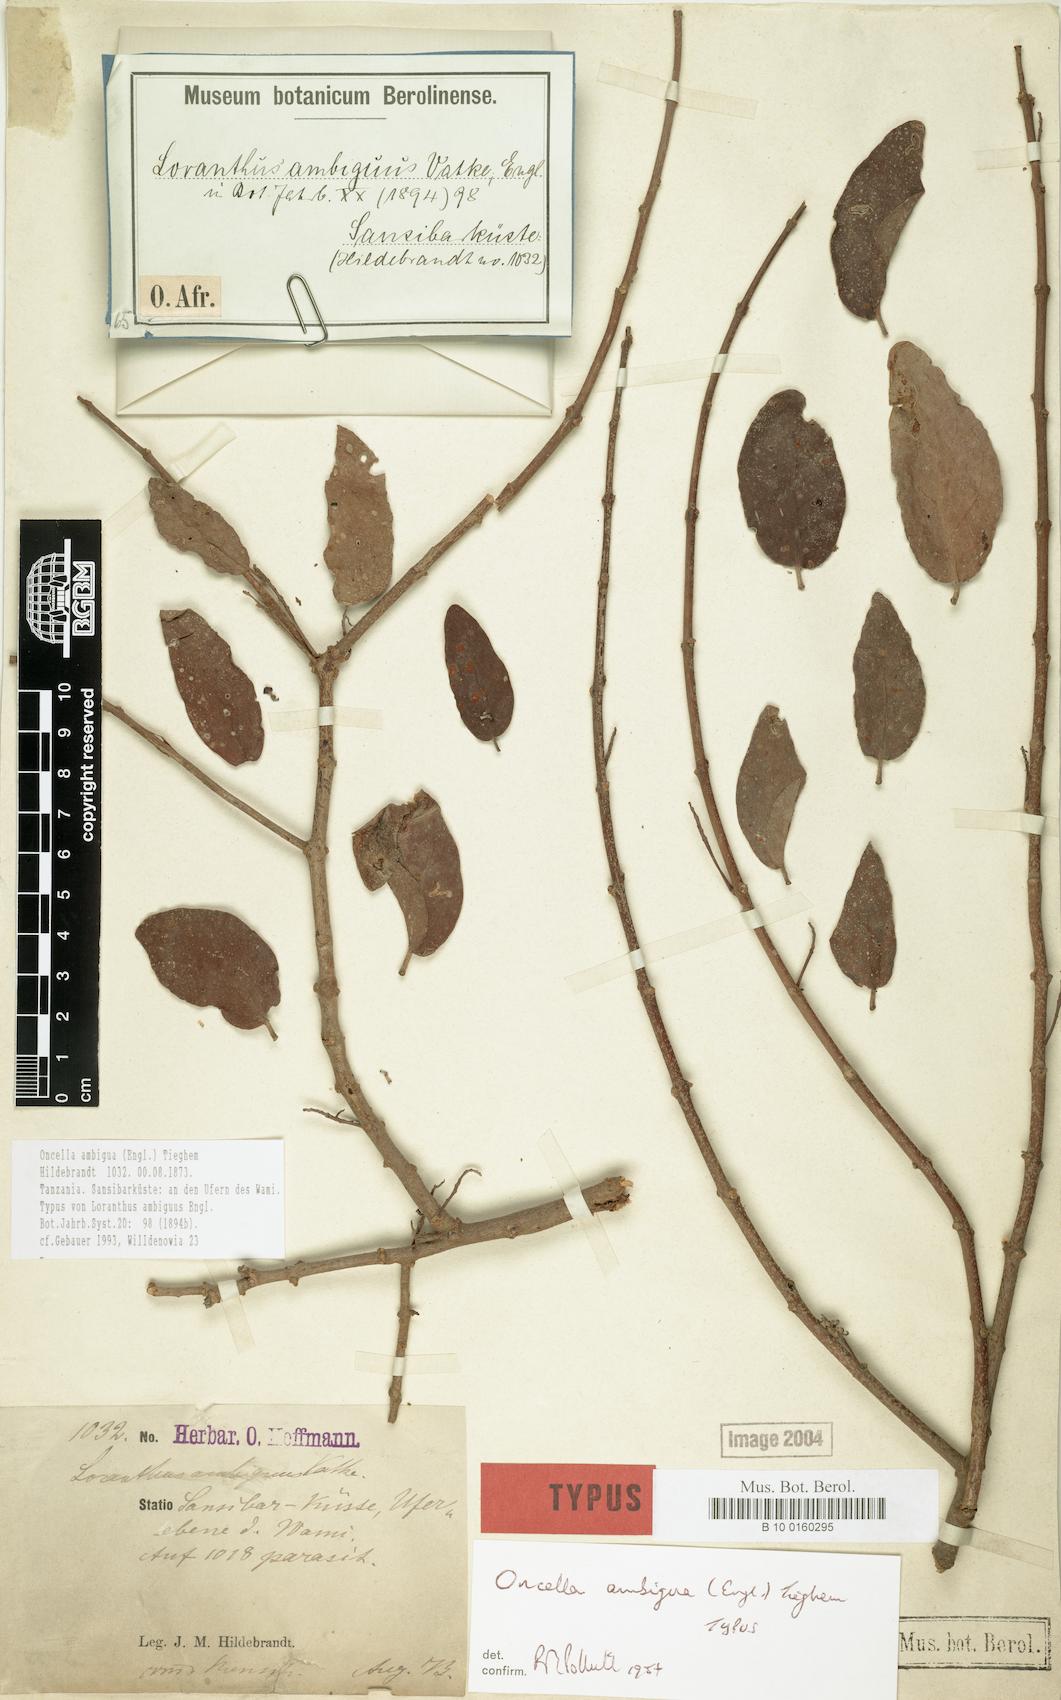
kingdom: Plantae
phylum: Tracheophyta
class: Magnoliopsida
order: Santalales
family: Loranthaceae
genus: Oncella
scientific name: Oncella ambigua
